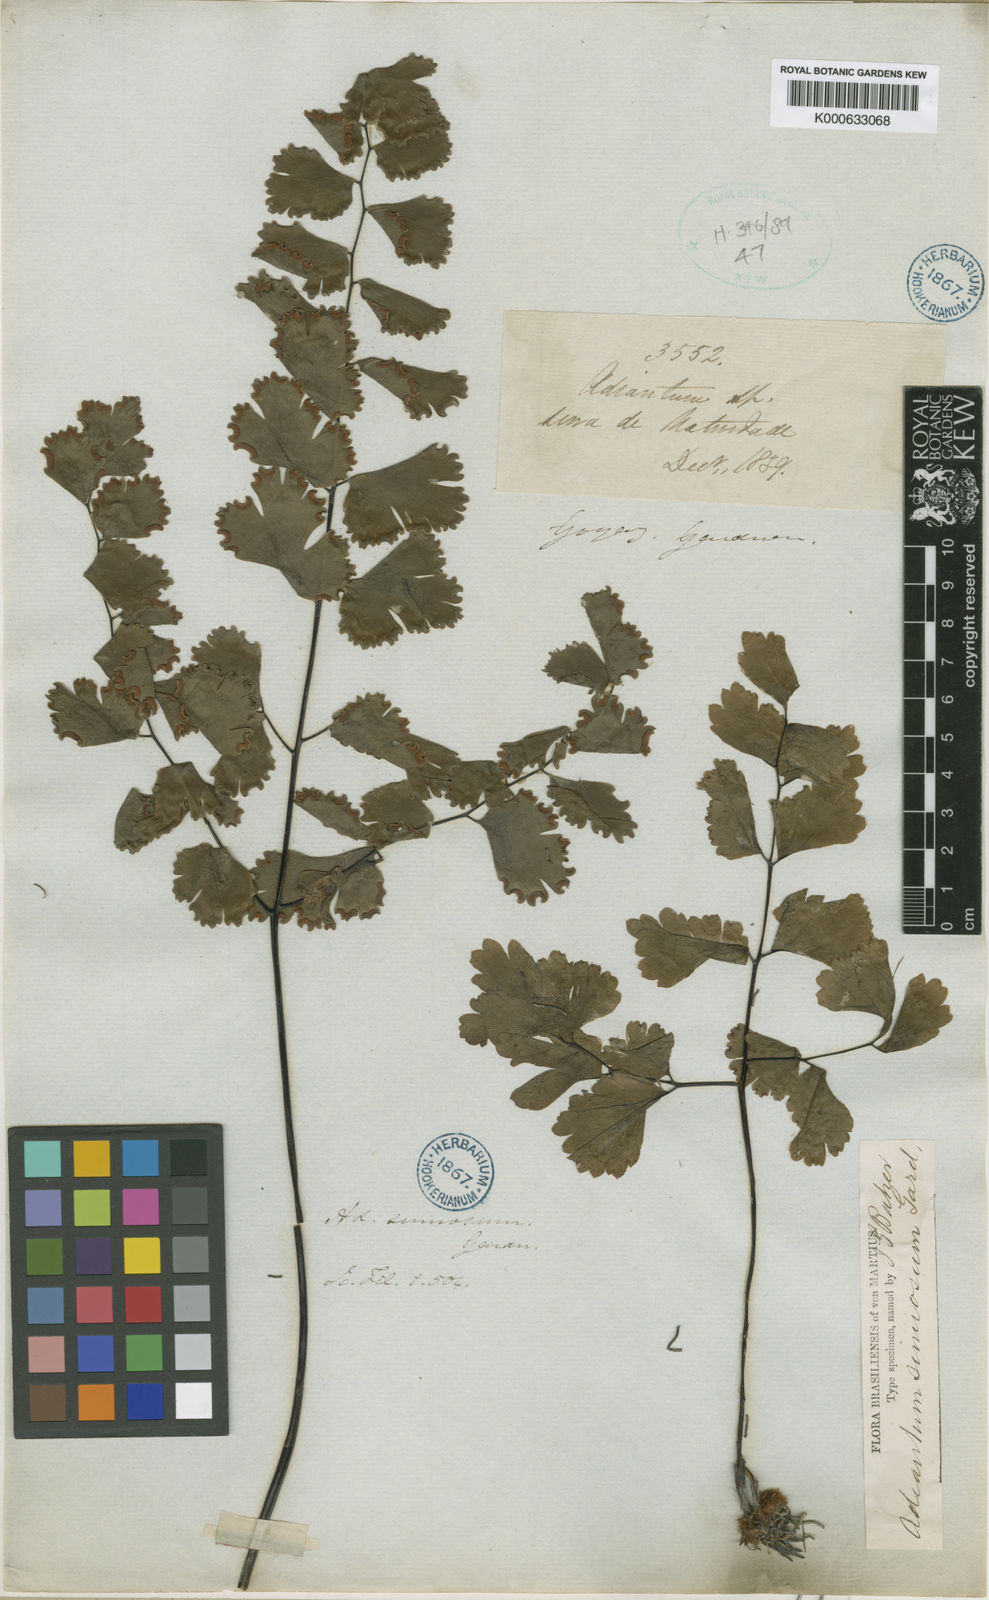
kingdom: Plantae
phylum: Tracheophyta
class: Polypodiopsida
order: Polypodiales
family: Pteridaceae
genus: Adiantum
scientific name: Adiantum sinuosum
